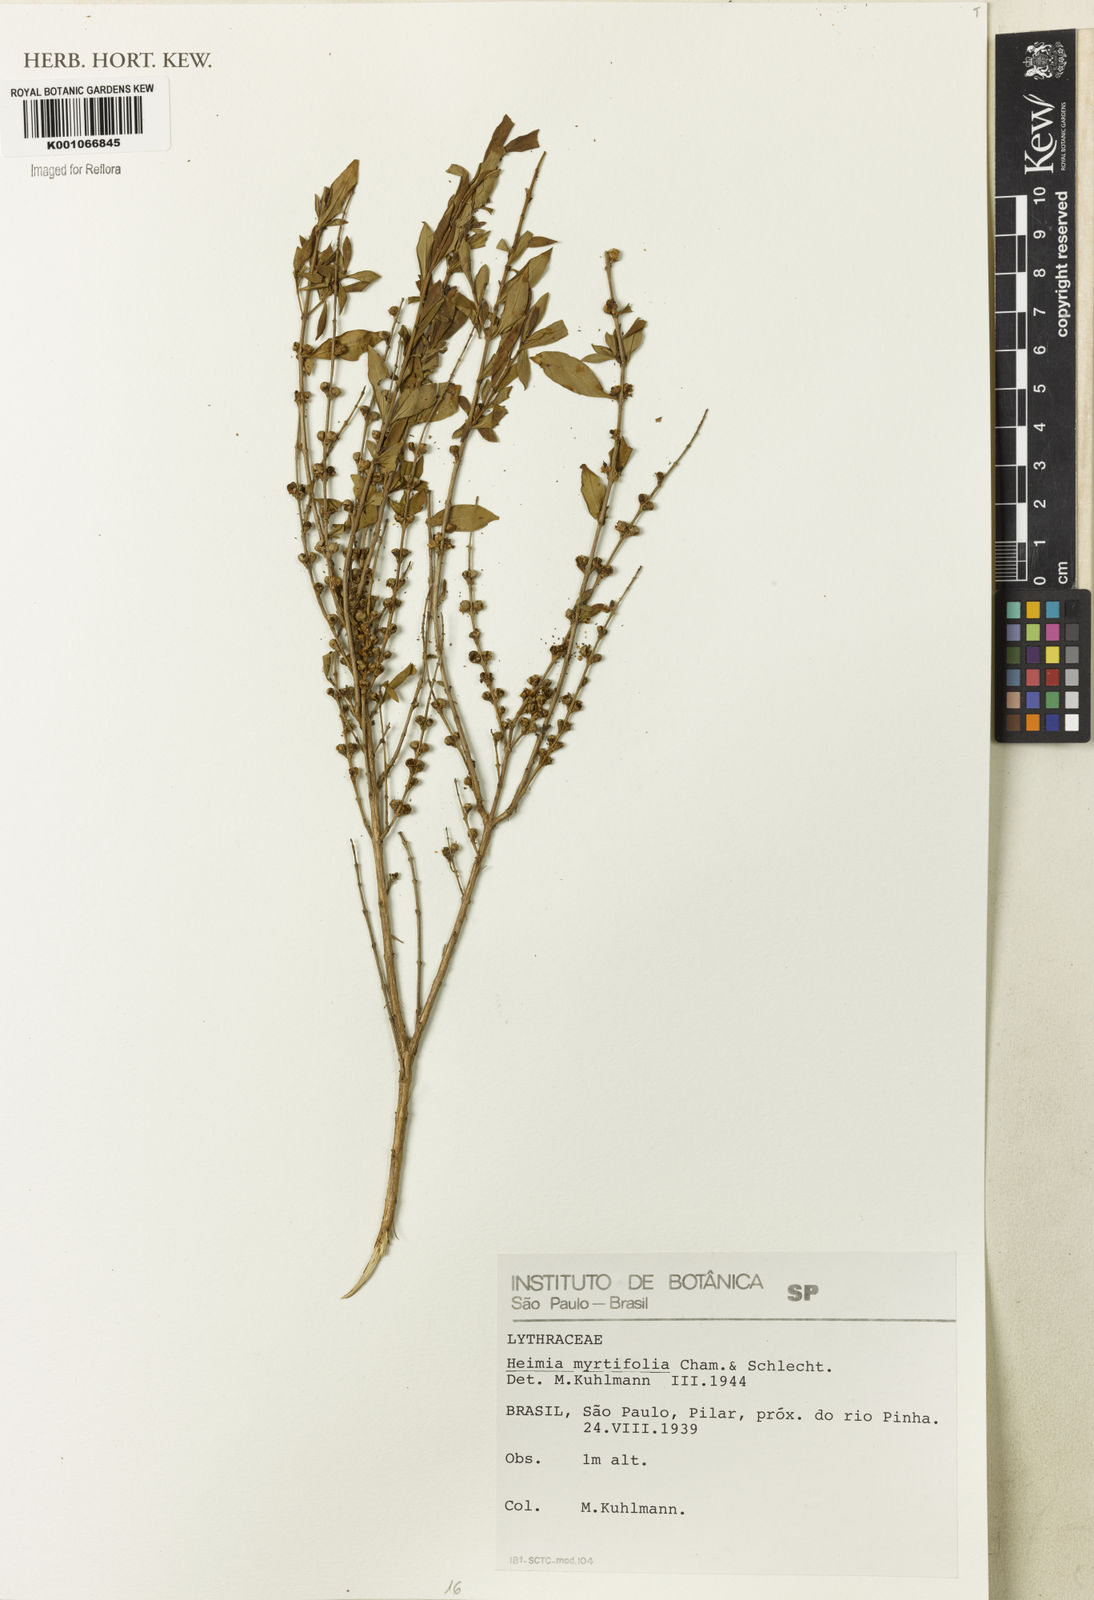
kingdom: Plantae
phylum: Tracheophyta
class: Magnoliopsida
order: Myrtales
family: Lythraceae
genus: Heimia
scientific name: Heimia apetala
